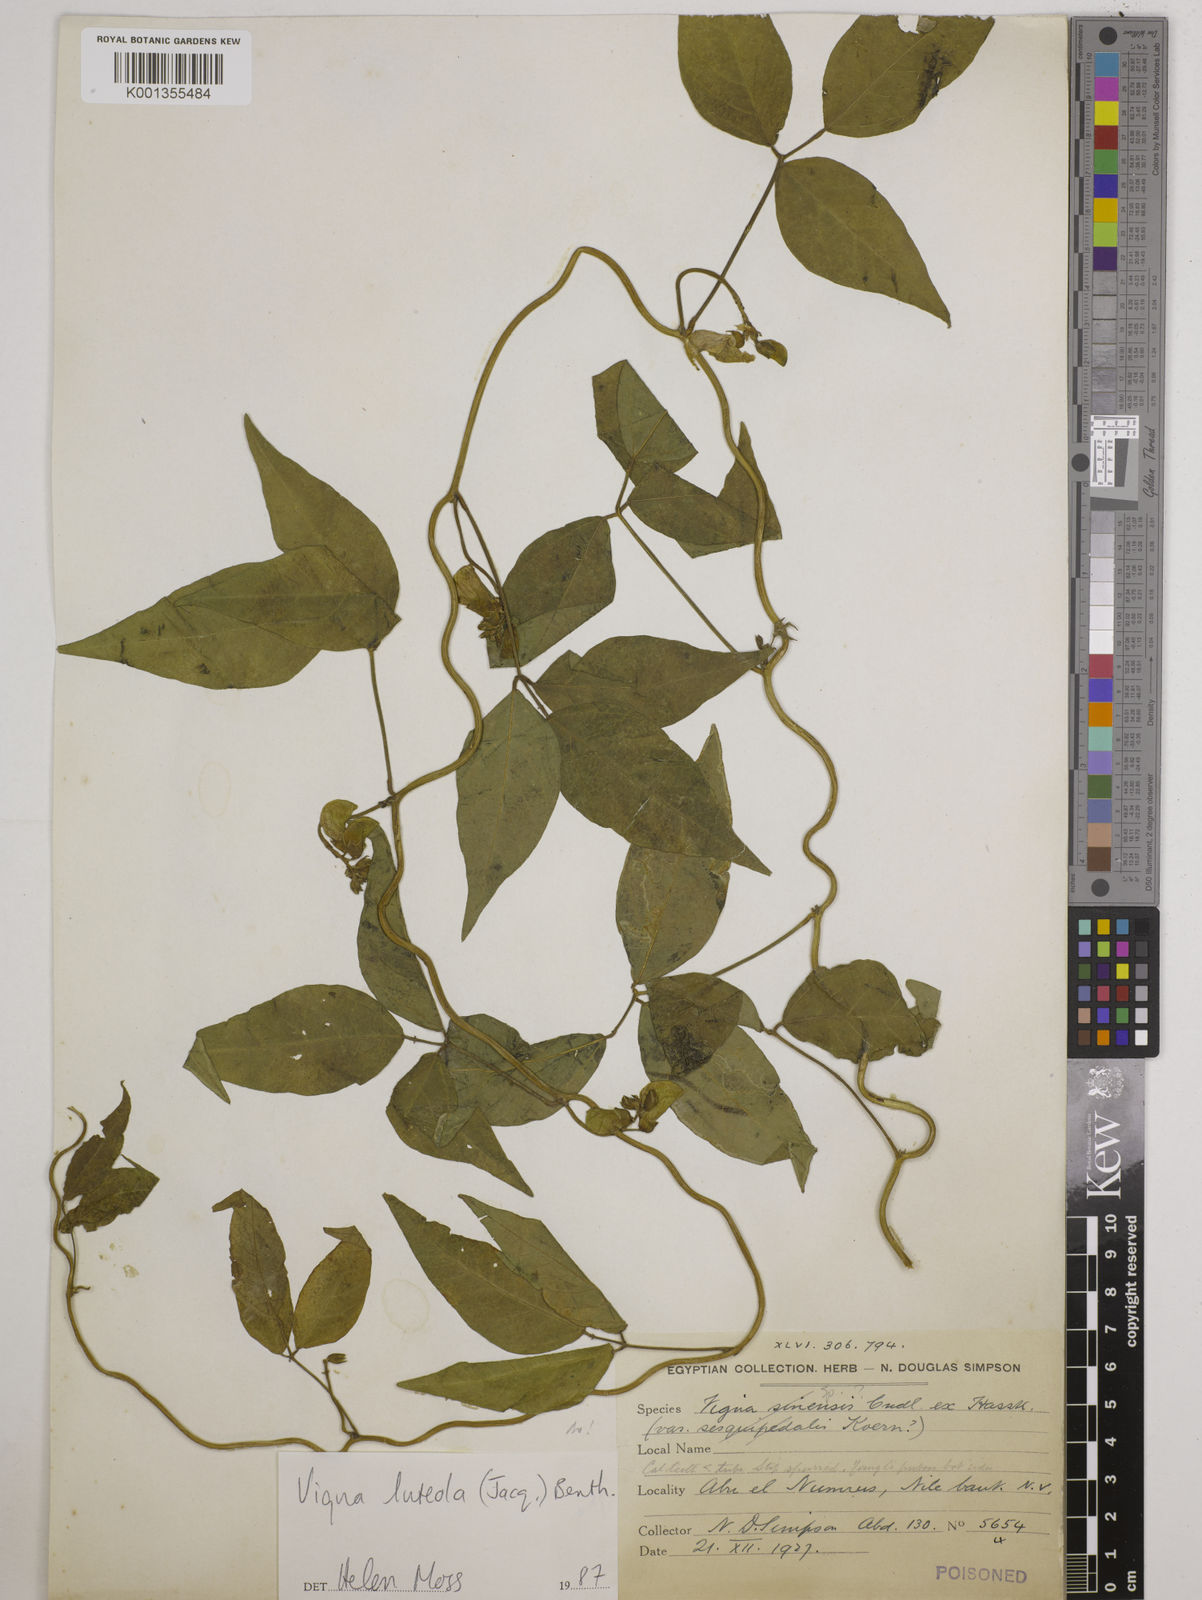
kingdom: Plantae
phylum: Tracheophyta
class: Magnoliopsida
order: Fabales
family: Fabaceae
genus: Vigna
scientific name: Vigna luteola
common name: Hairypod cowpea
